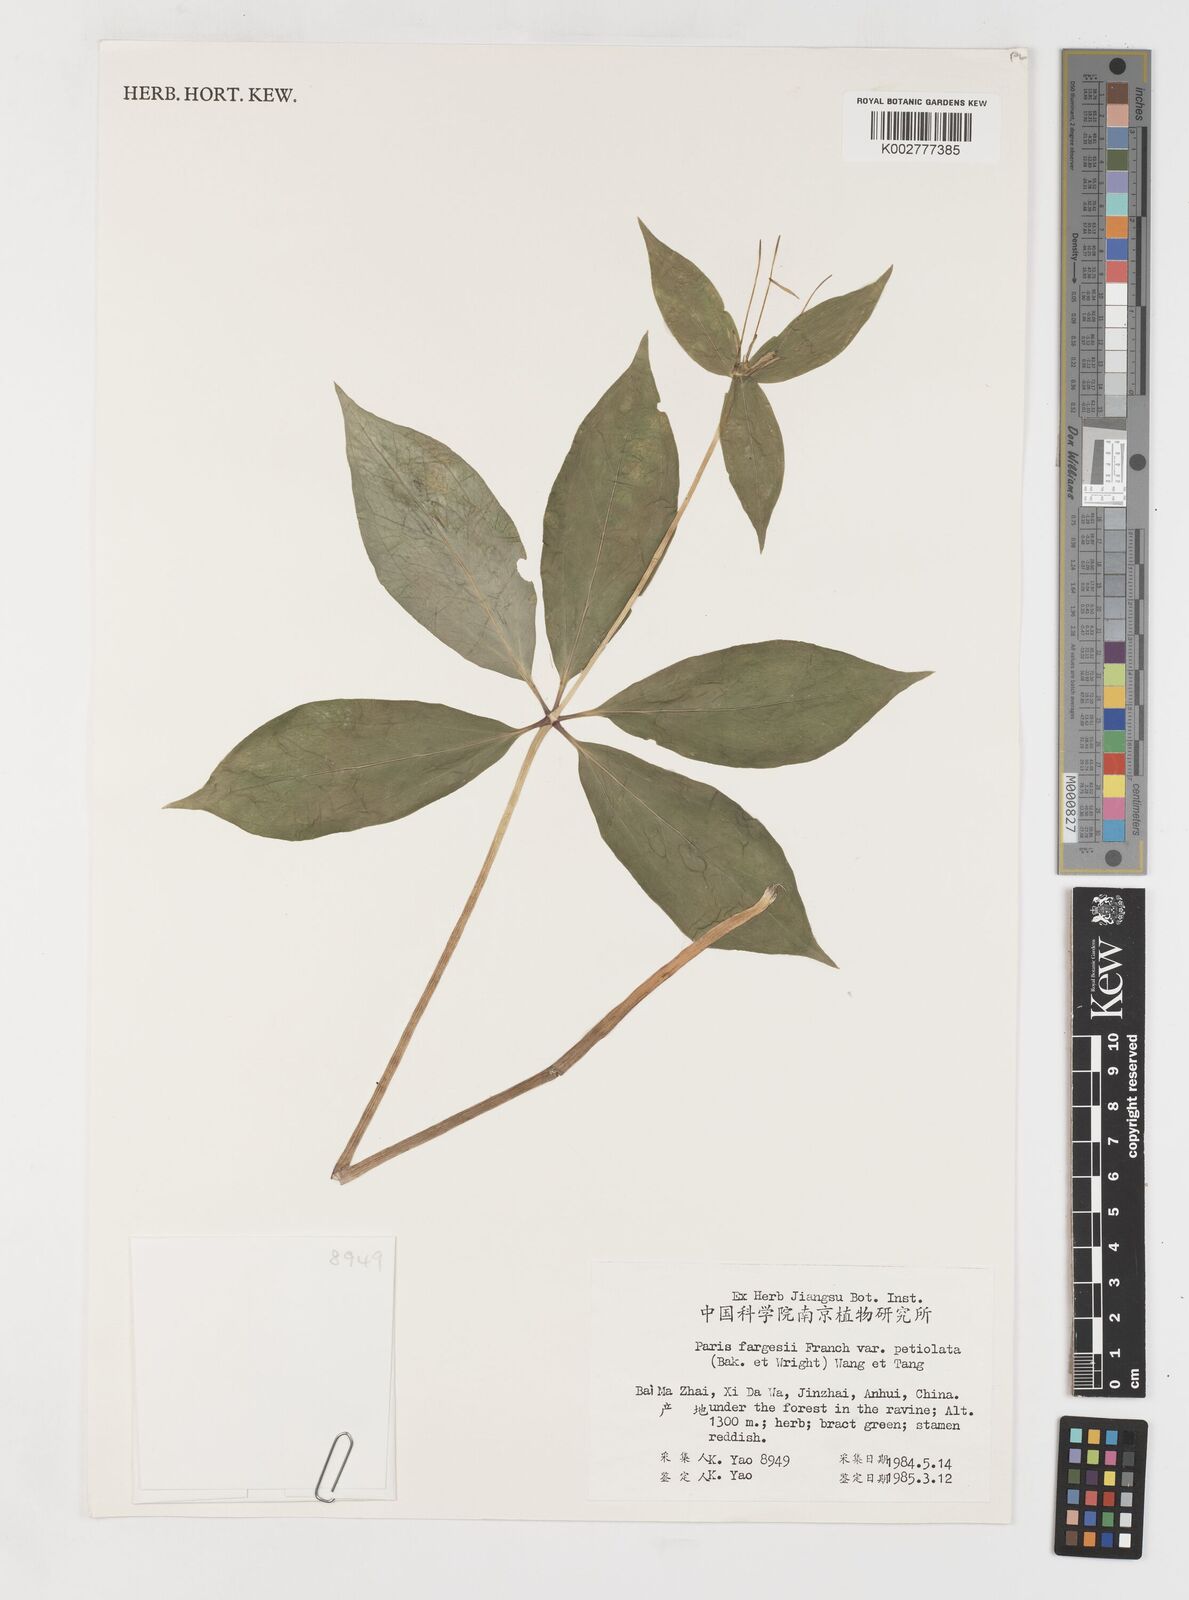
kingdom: Plantae
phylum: Tracheophyta
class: Liliopsida
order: Liliales
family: Melanthiaceae
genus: Paris
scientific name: Paris fargesii
